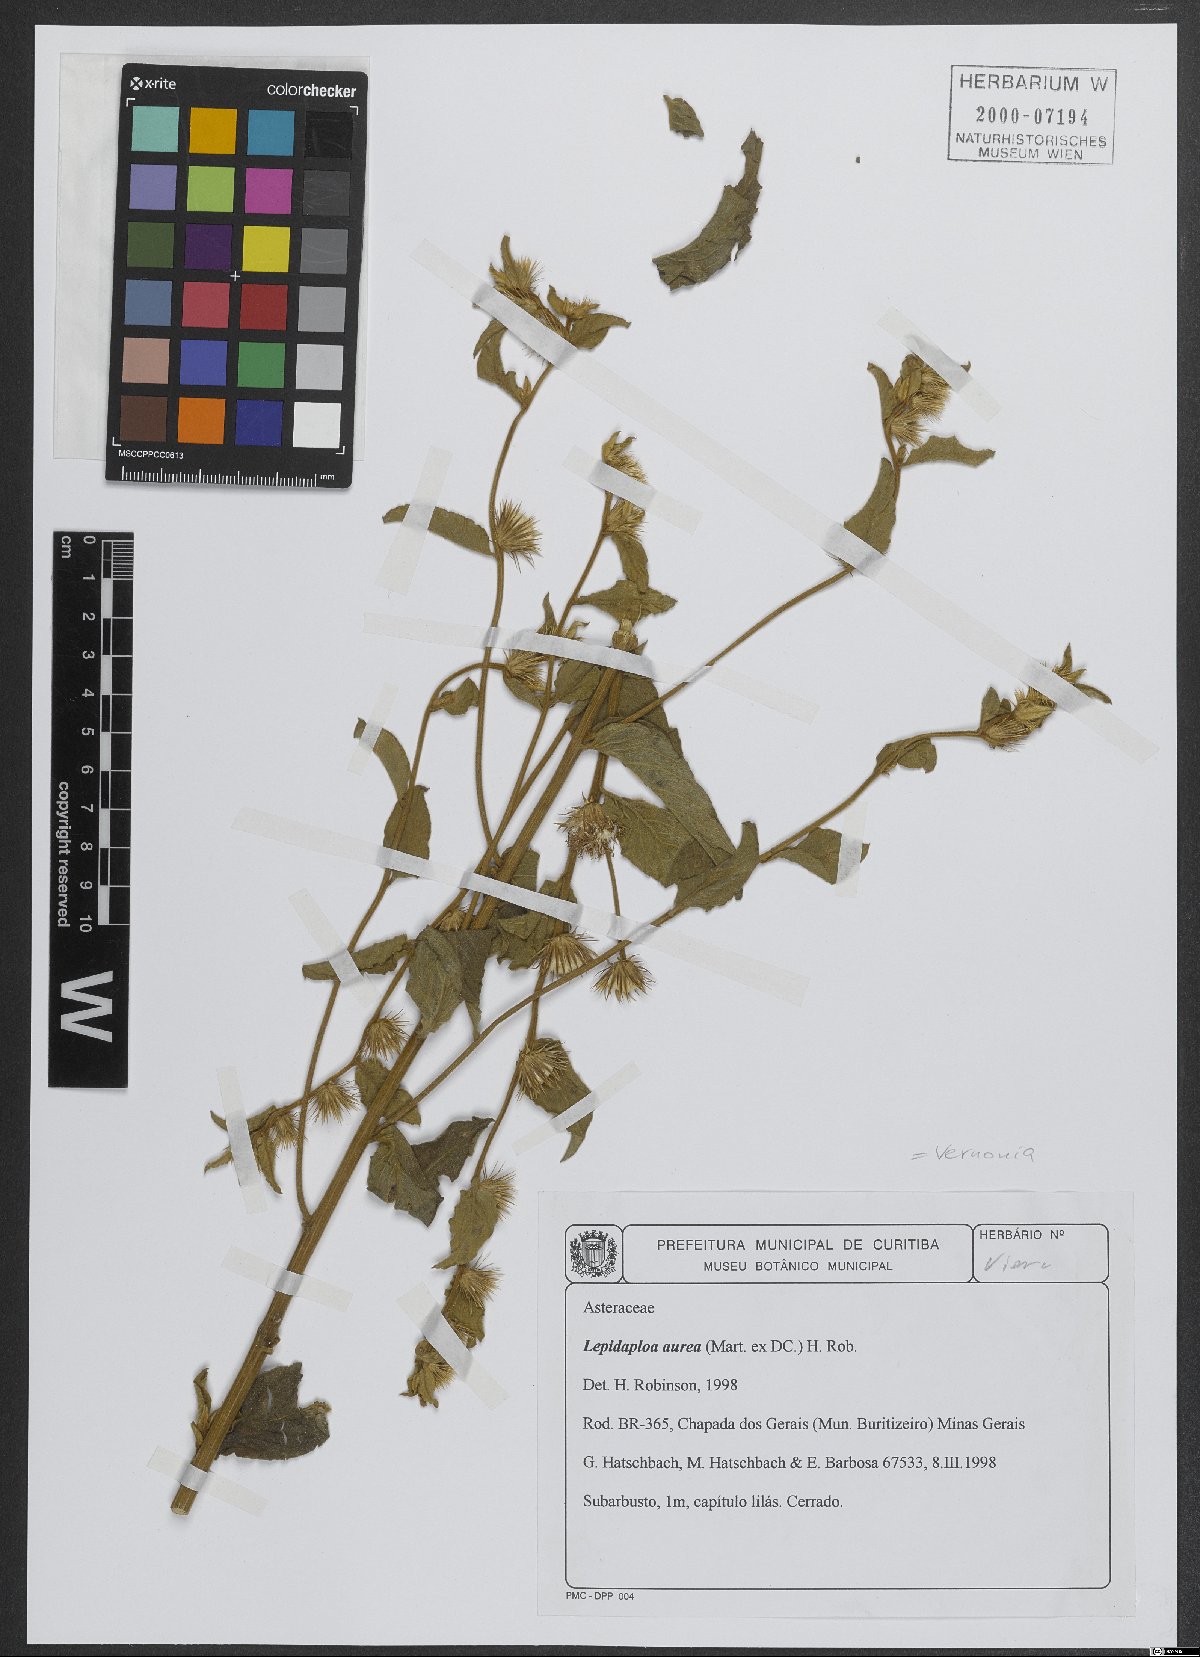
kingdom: Plantae
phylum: Tracheophyta
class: Magnoliopsida
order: Asterales
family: Asteraceae
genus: Lepidaploa
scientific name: Lepidaploa aurea
